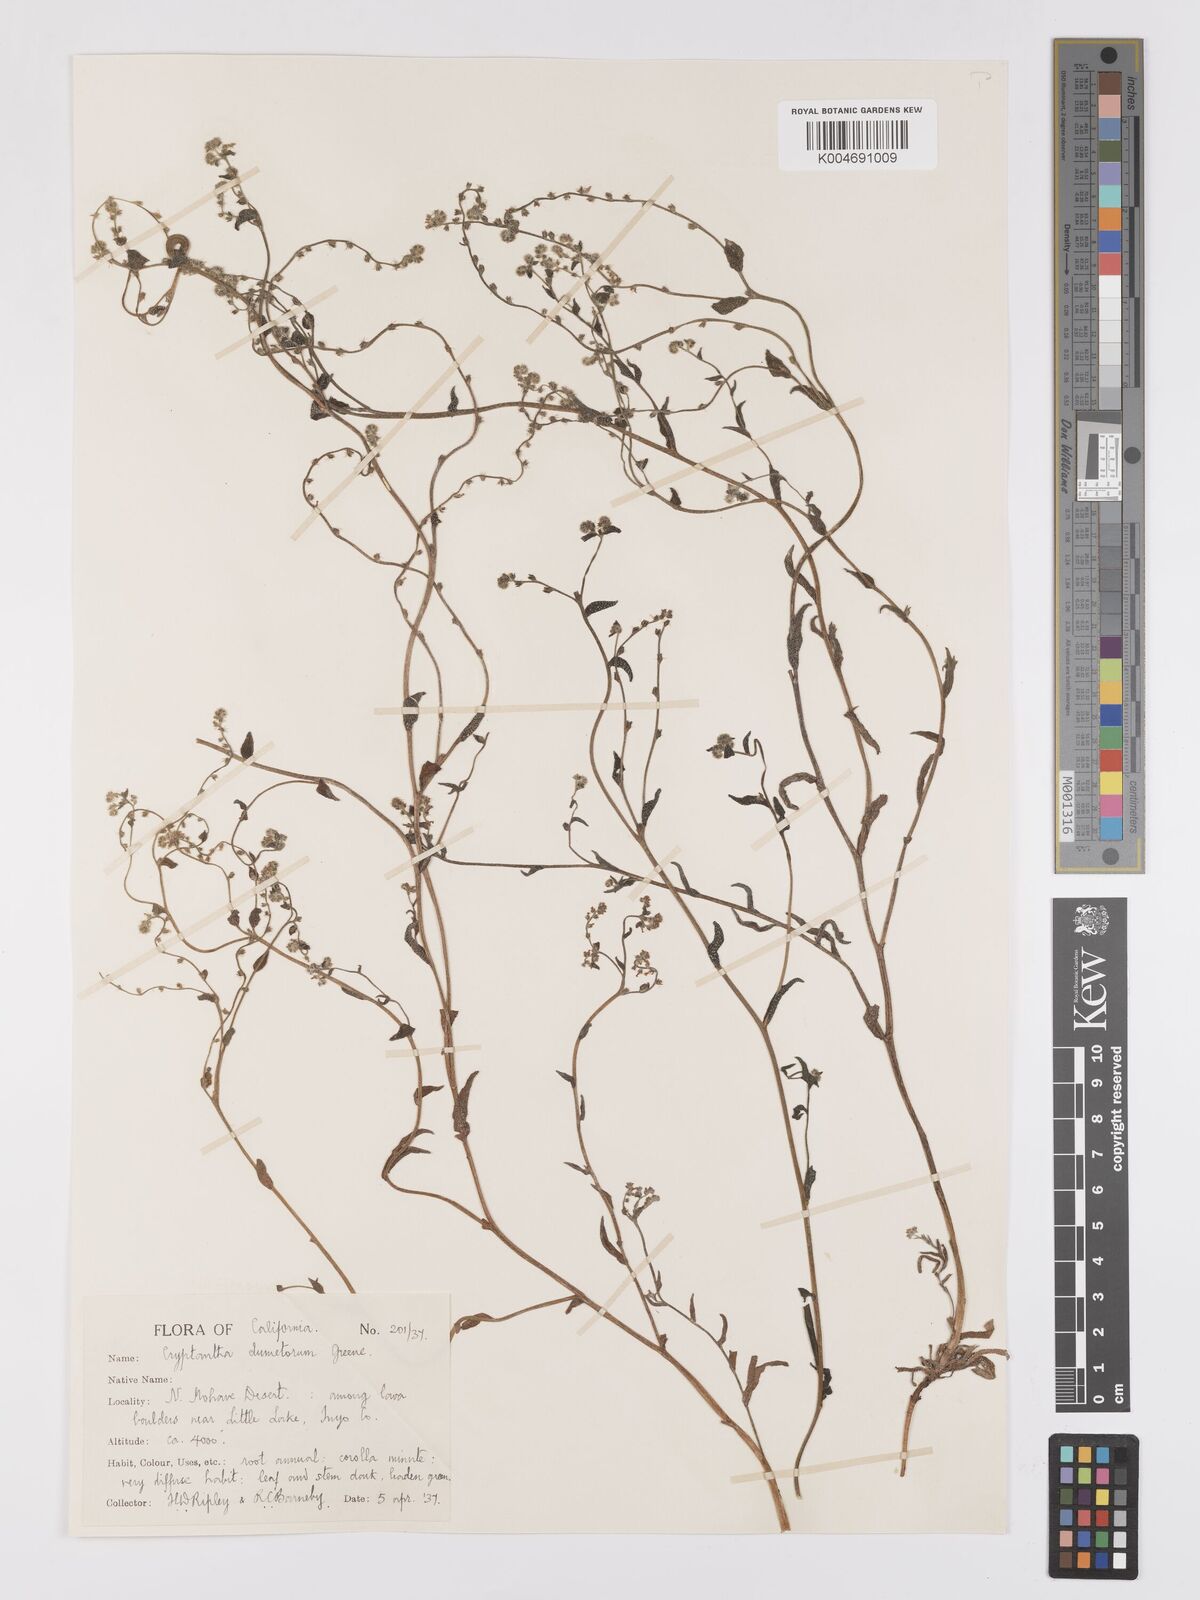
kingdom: Plantae
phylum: Tracheophyta
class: Magnoliopsida
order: Boraginales
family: Boraginaceae
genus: Cryptantha
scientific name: Cryptantha dumetorum
